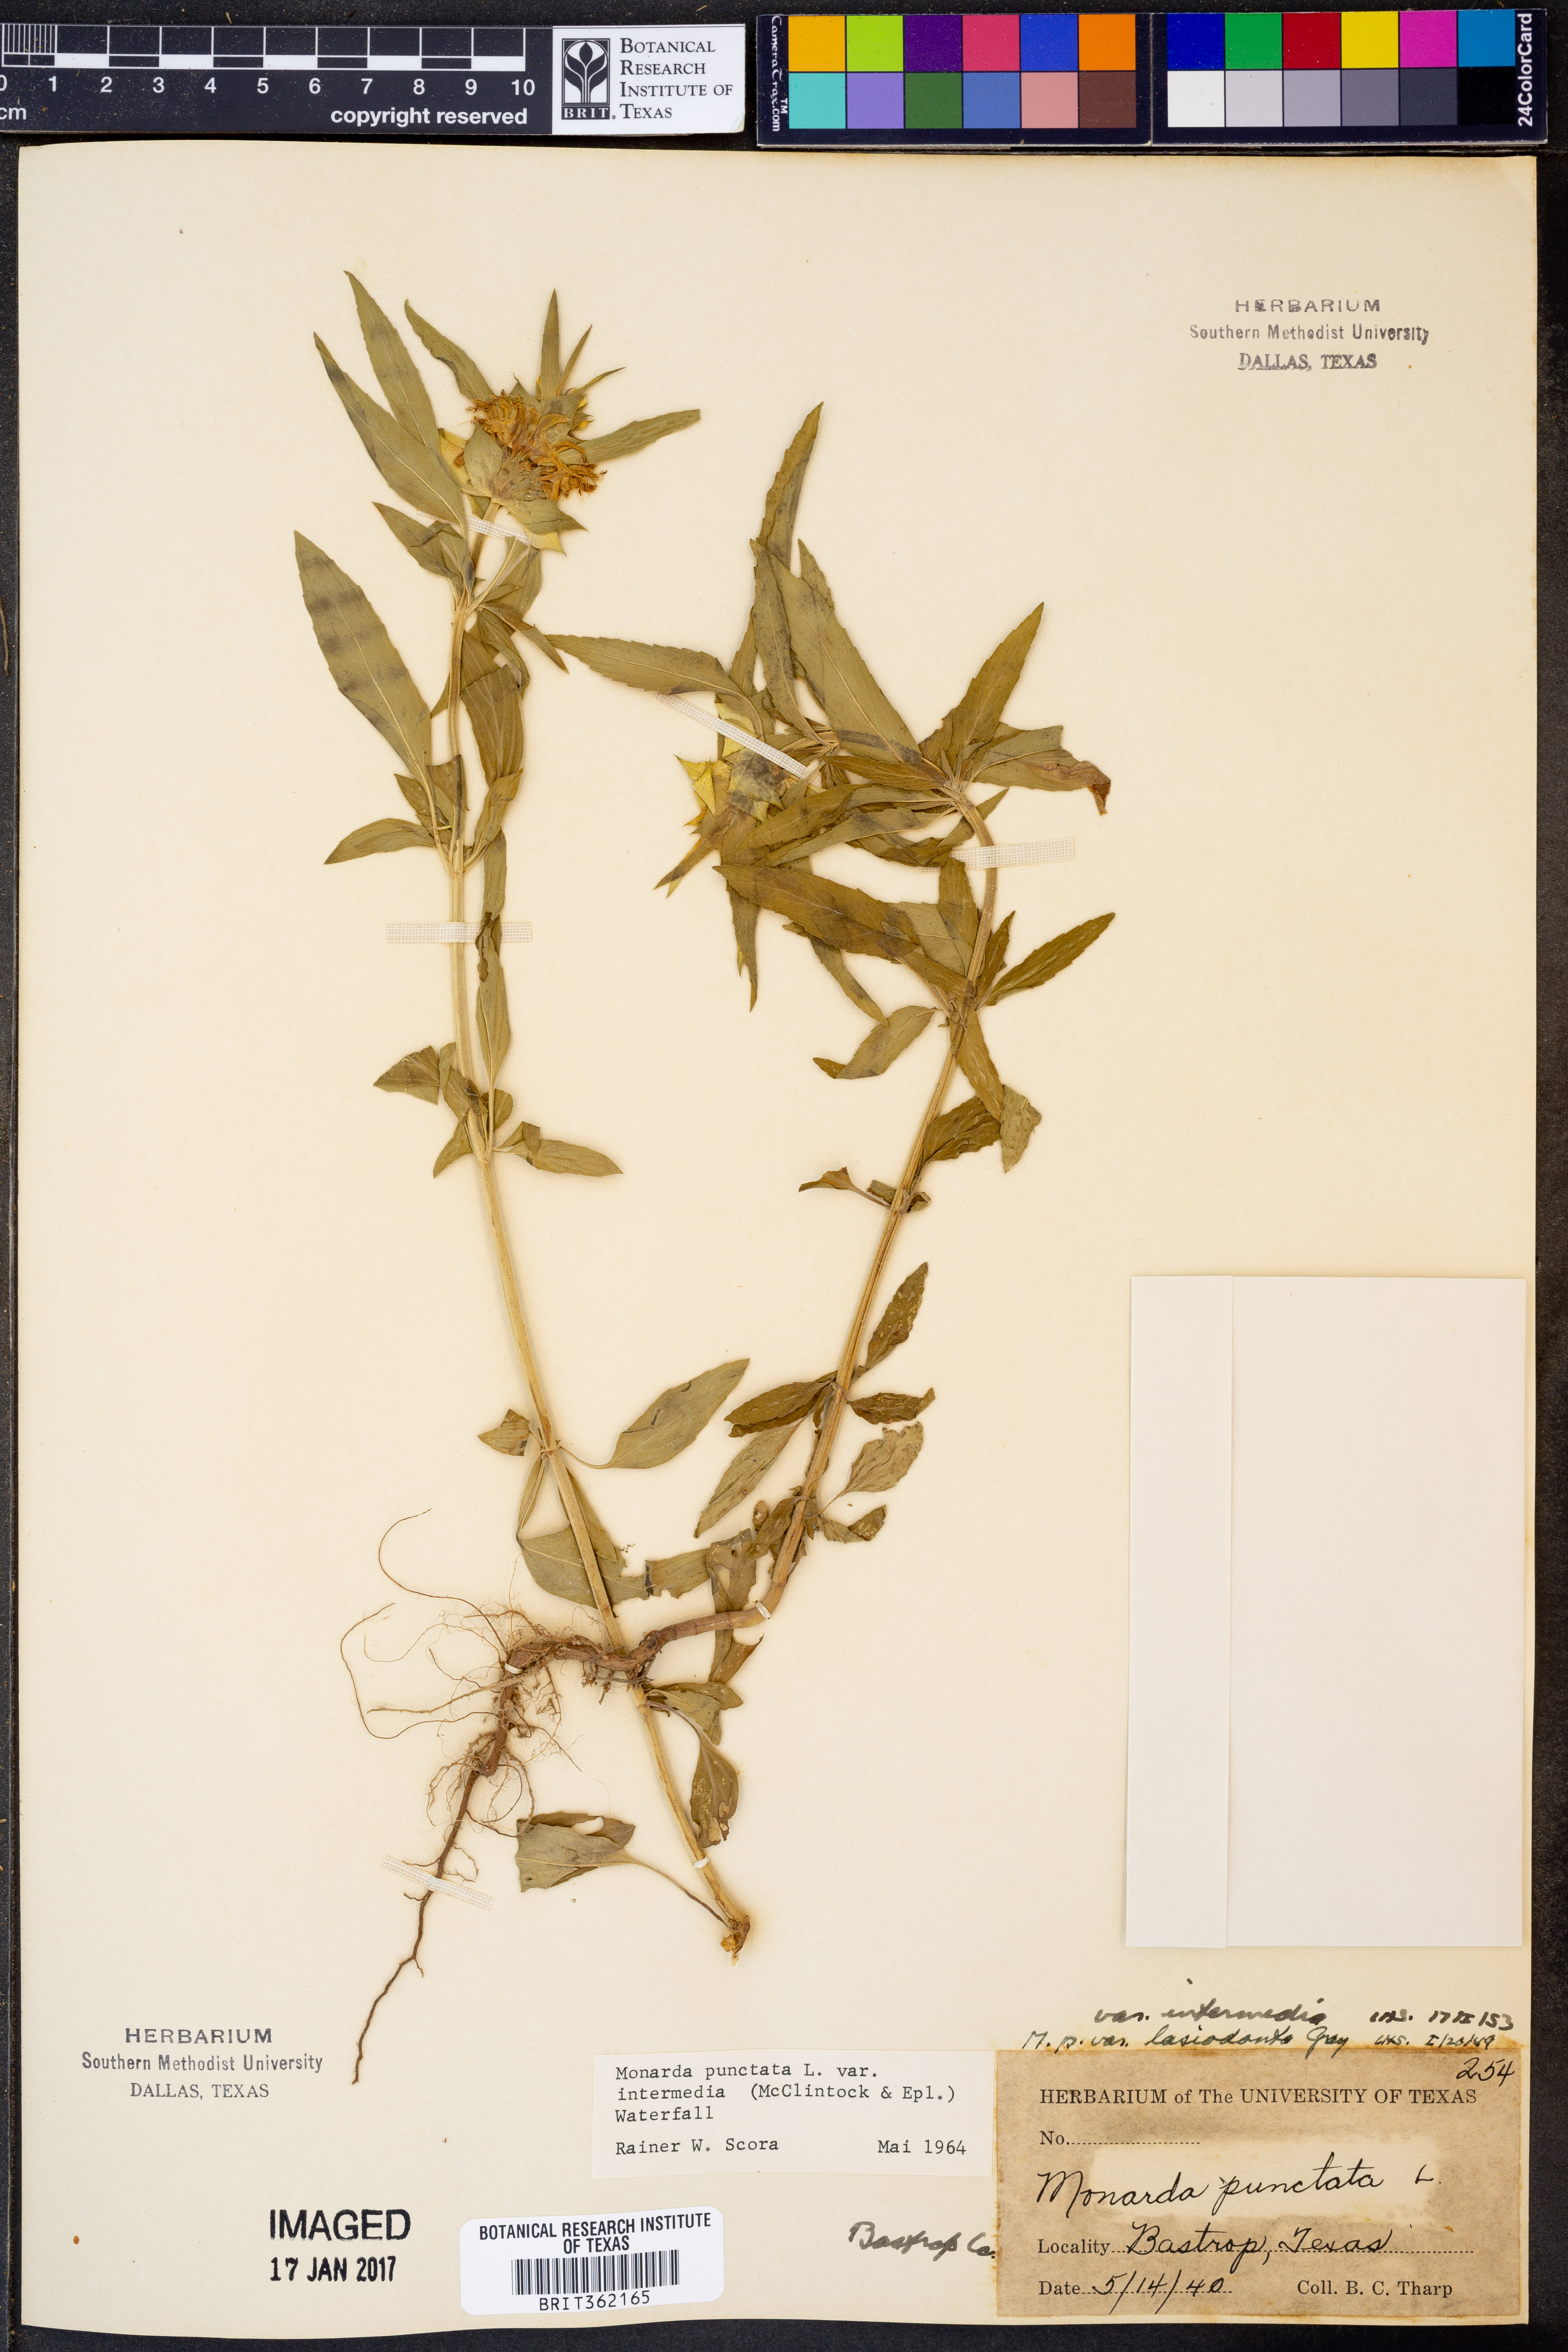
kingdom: Plantae
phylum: Tracheophyta
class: Magnoliopsida
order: Lamiales
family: Lamiaceae
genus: Monarda
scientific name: Monarda punctata
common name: Dotted monarda
